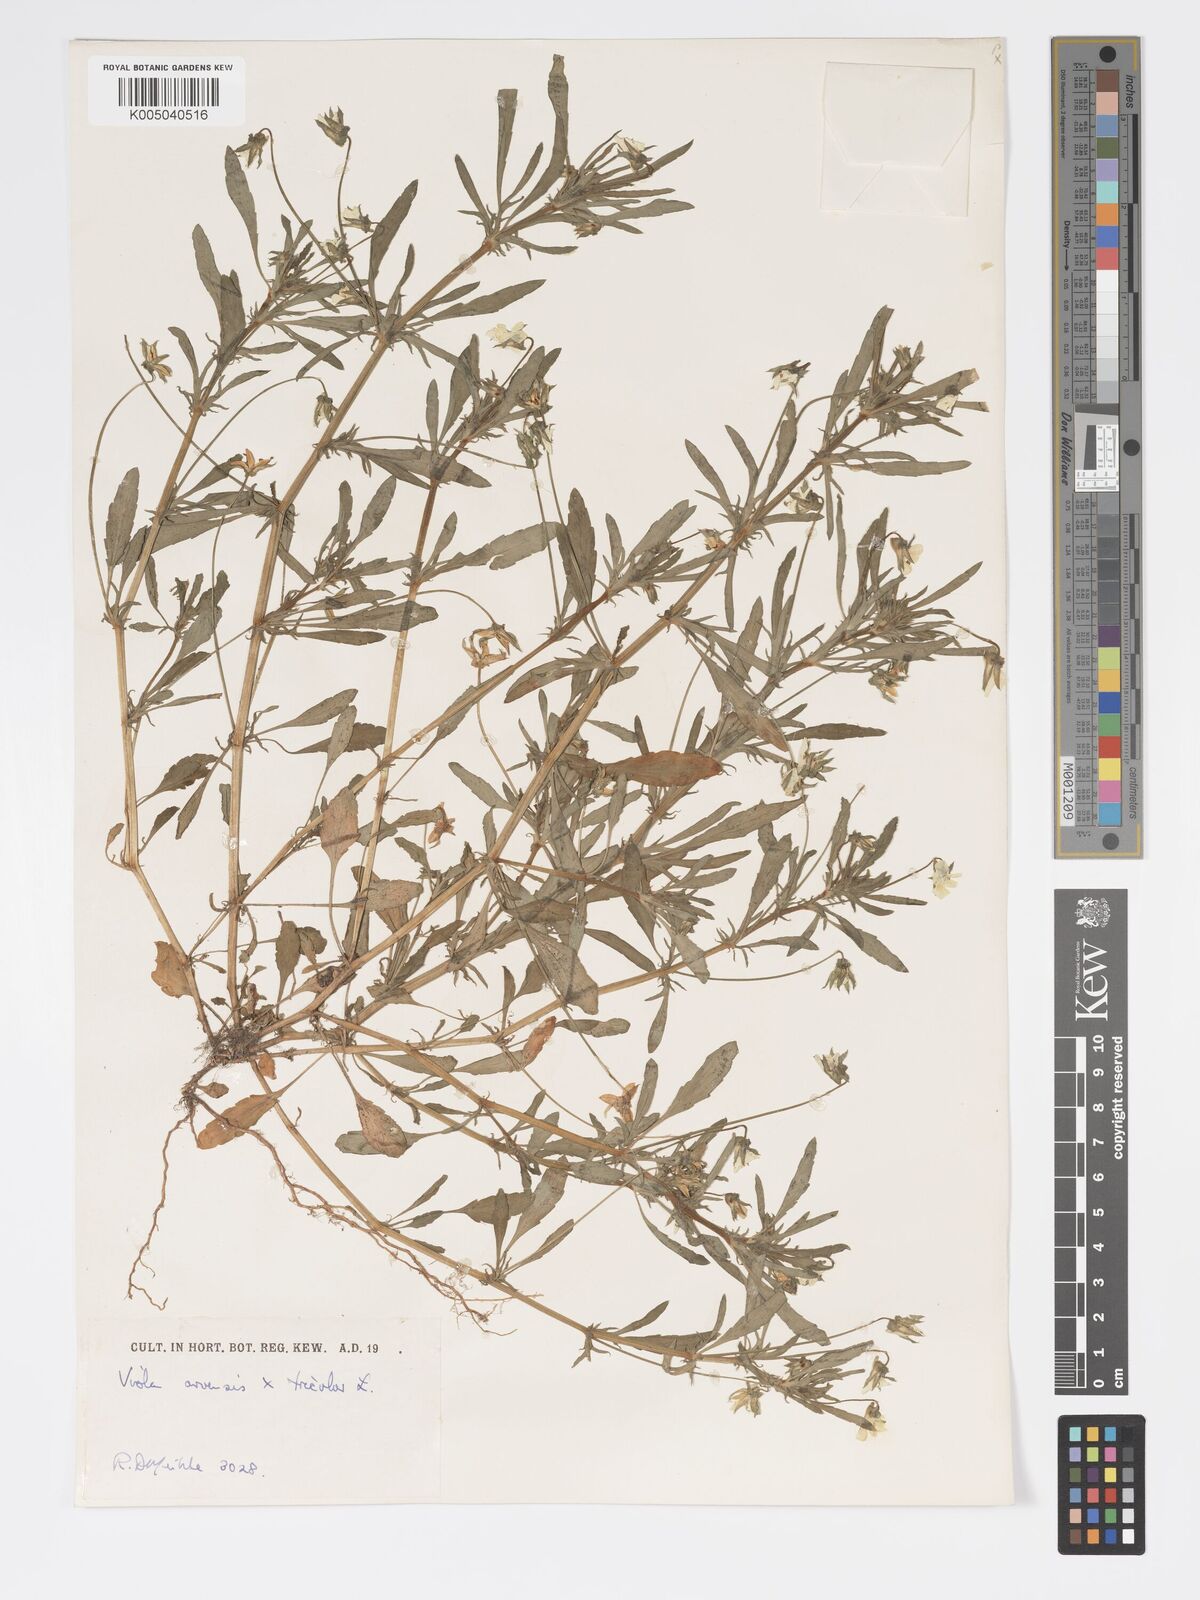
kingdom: Plantae
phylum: Tracheophyta
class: Magnoliopsida
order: Malpighiales
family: Violaceae
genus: Viola
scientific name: Viola arvensis
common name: Field pansy
